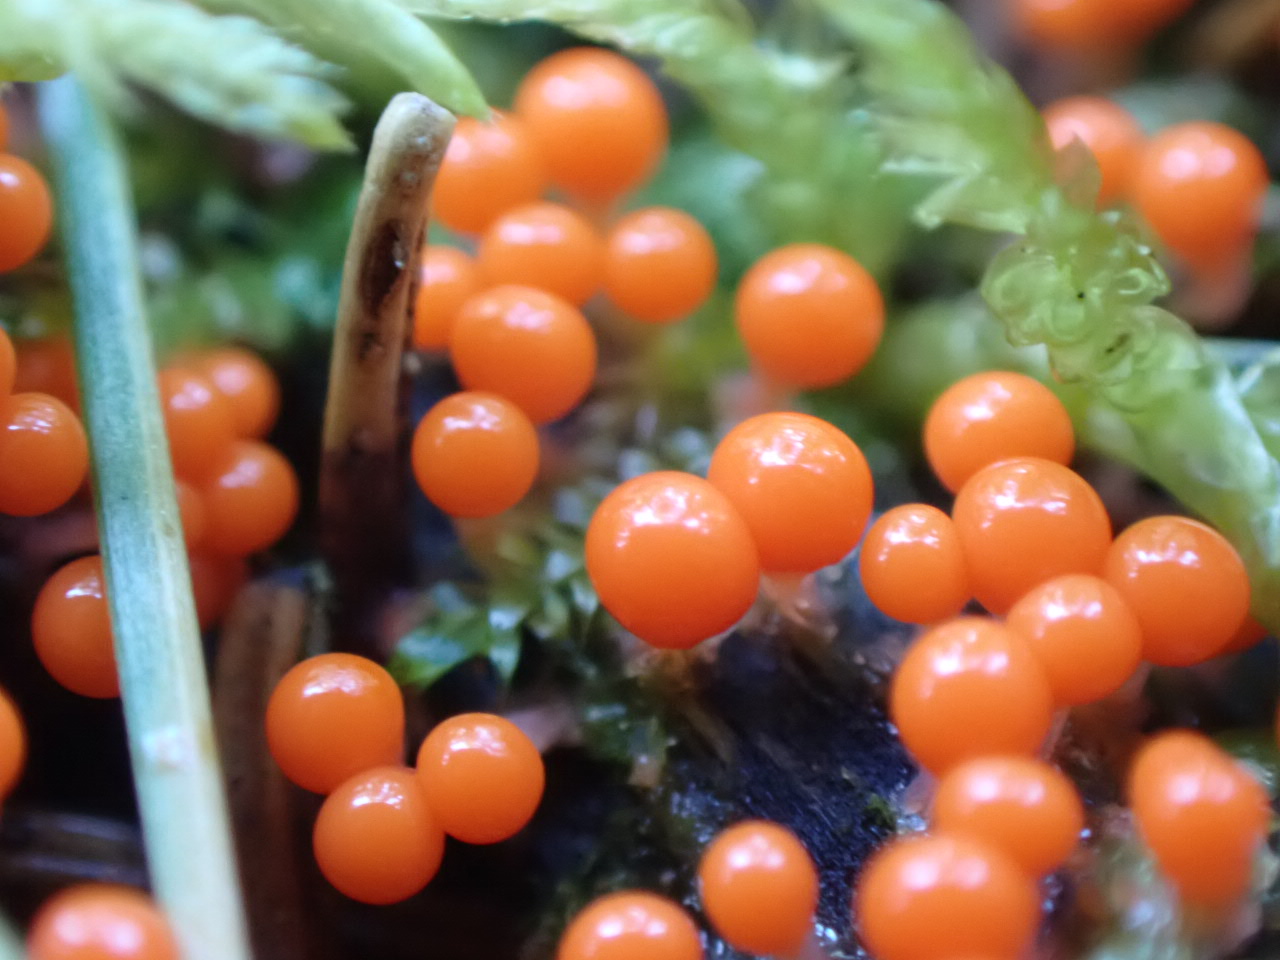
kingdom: Protozoa
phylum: Mycetozoa
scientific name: Mycetozoa
